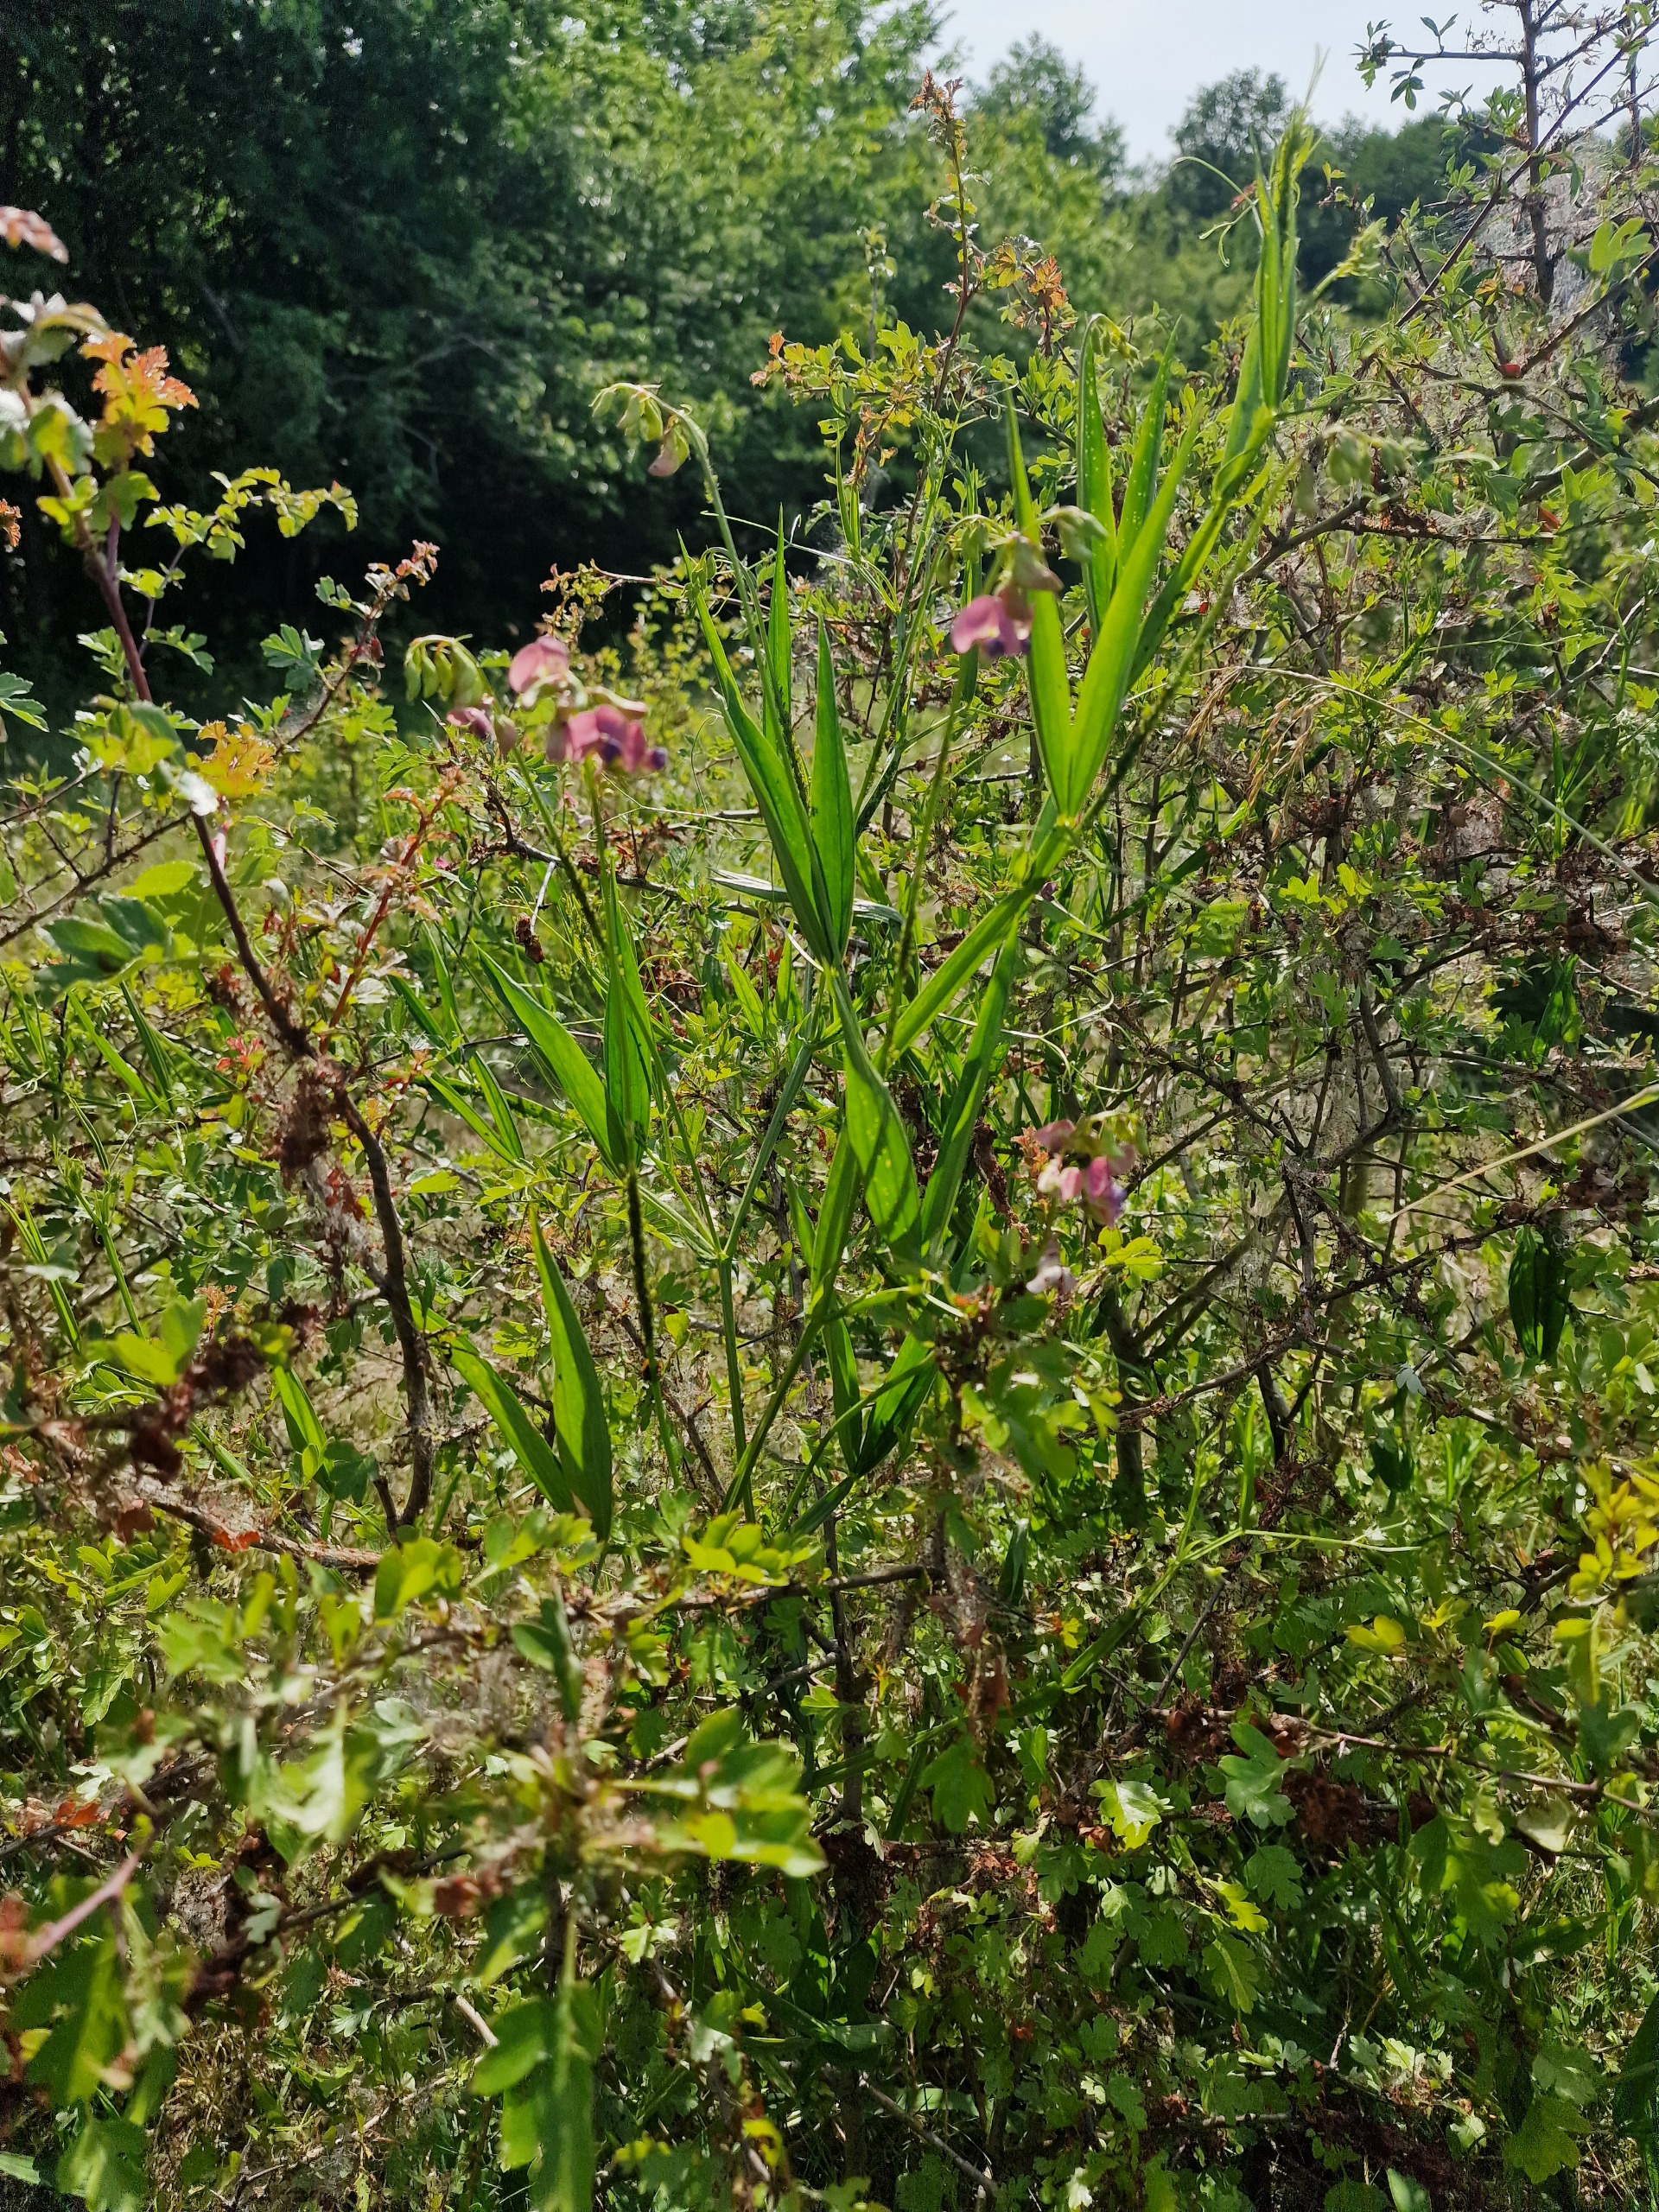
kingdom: Plantae
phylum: Tracheophyta
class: Magnoliopsida
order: Fabales
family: Fabaceae
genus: Lathyrus
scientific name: Lathyrus sylvestris
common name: Skov-fladbælg
